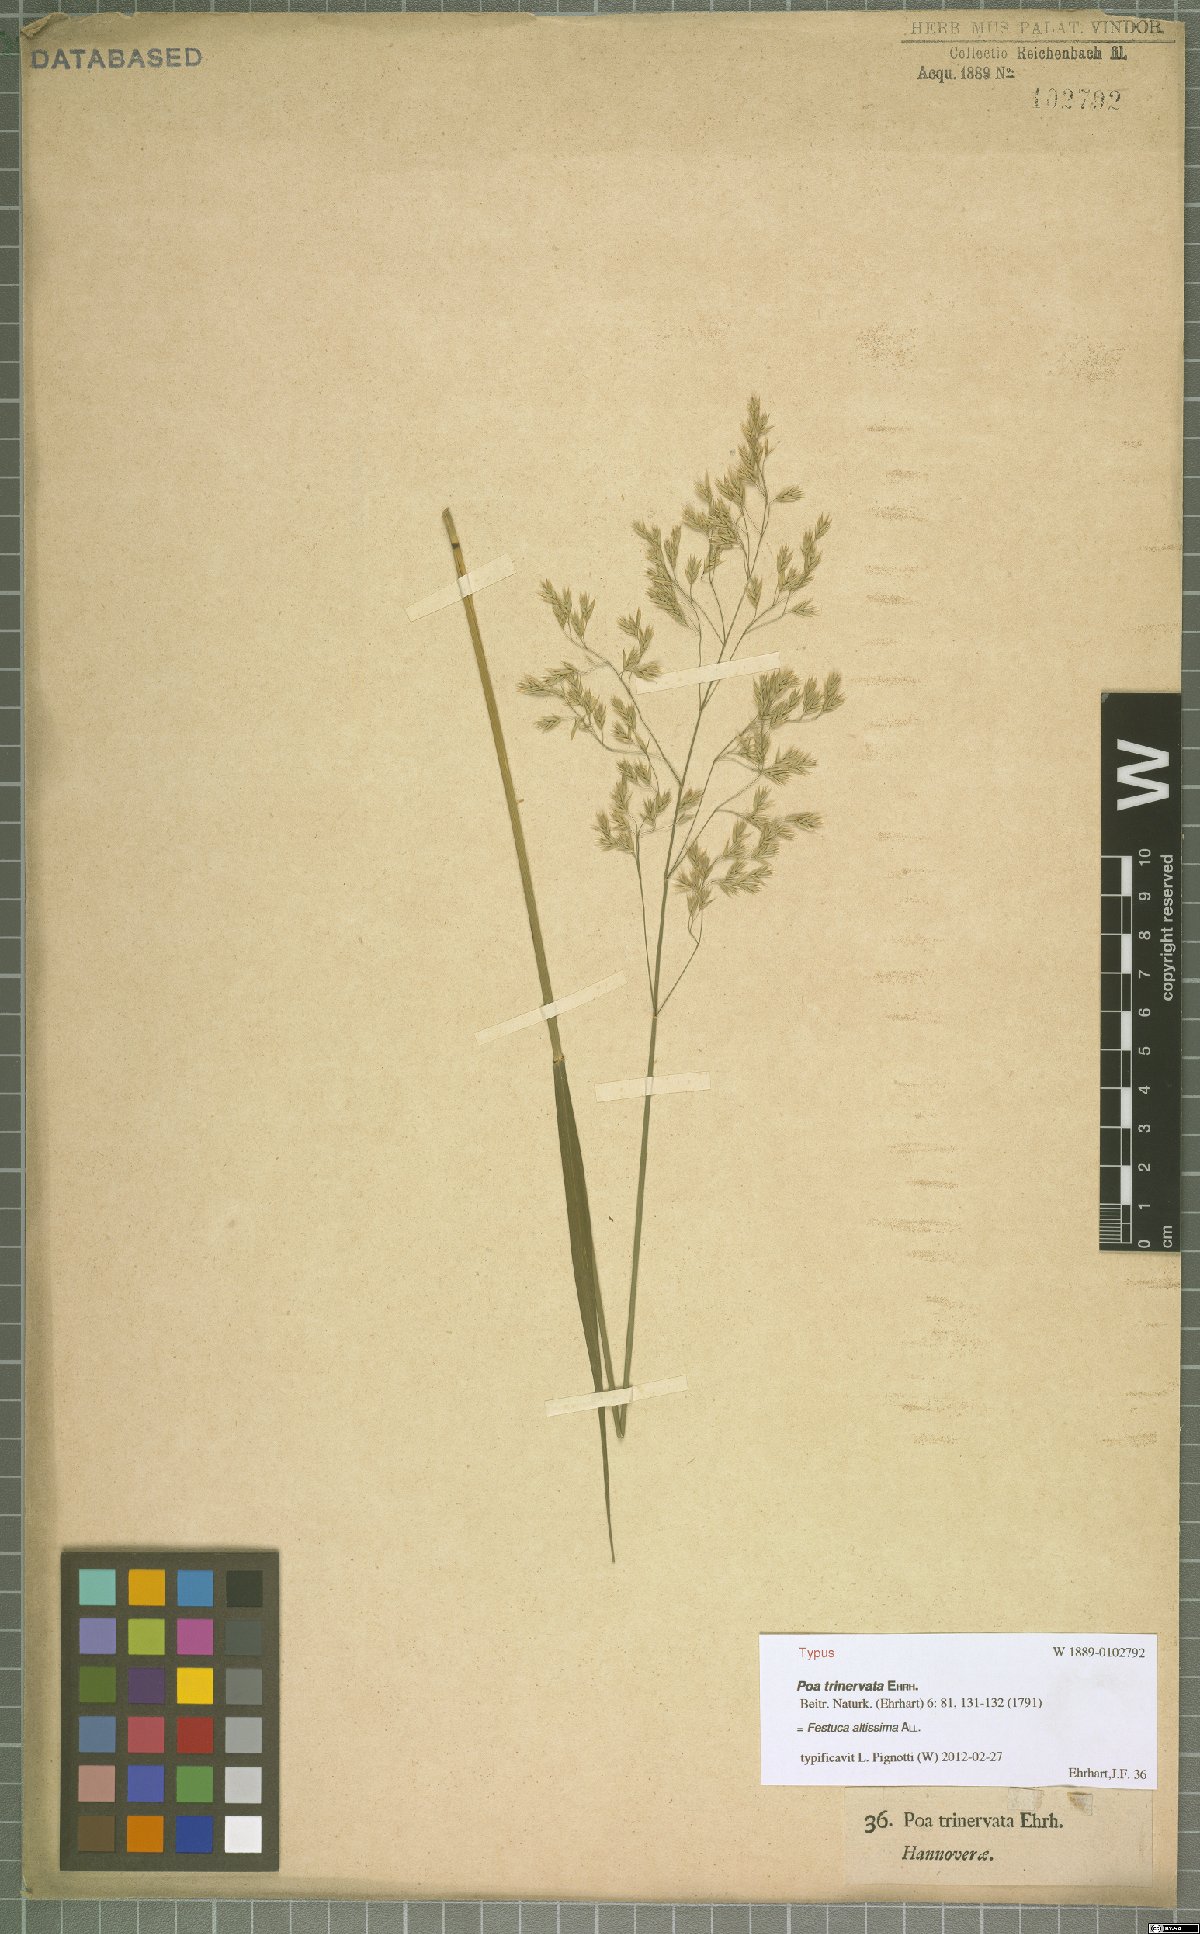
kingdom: Plantae
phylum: Tracheophyta
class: Liliopsida
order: Poales
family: Poaceae
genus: Festuca
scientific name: Festuca altissima
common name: Wood fescue
